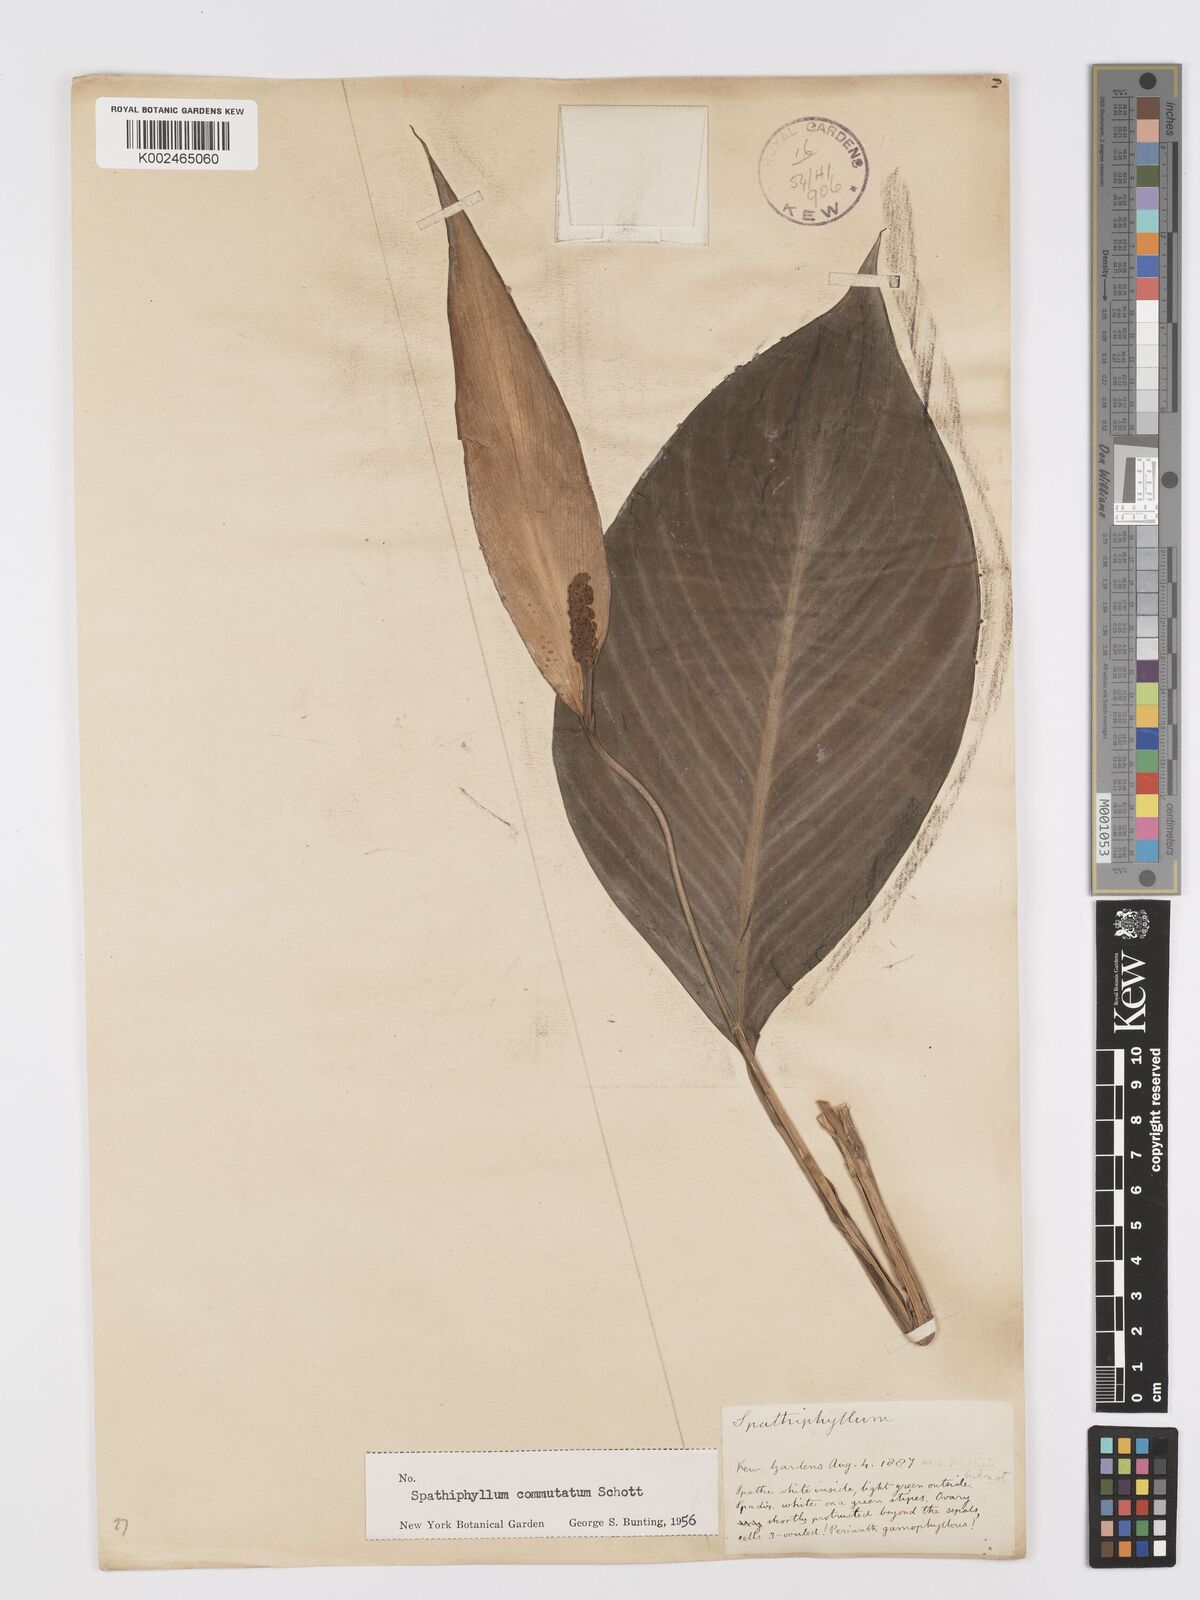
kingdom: Plantae
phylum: Tracheophyta
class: Liliopsida
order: Alismatales
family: Araceae
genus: Spathiphyllum
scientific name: Spathiphyllum commutatum
